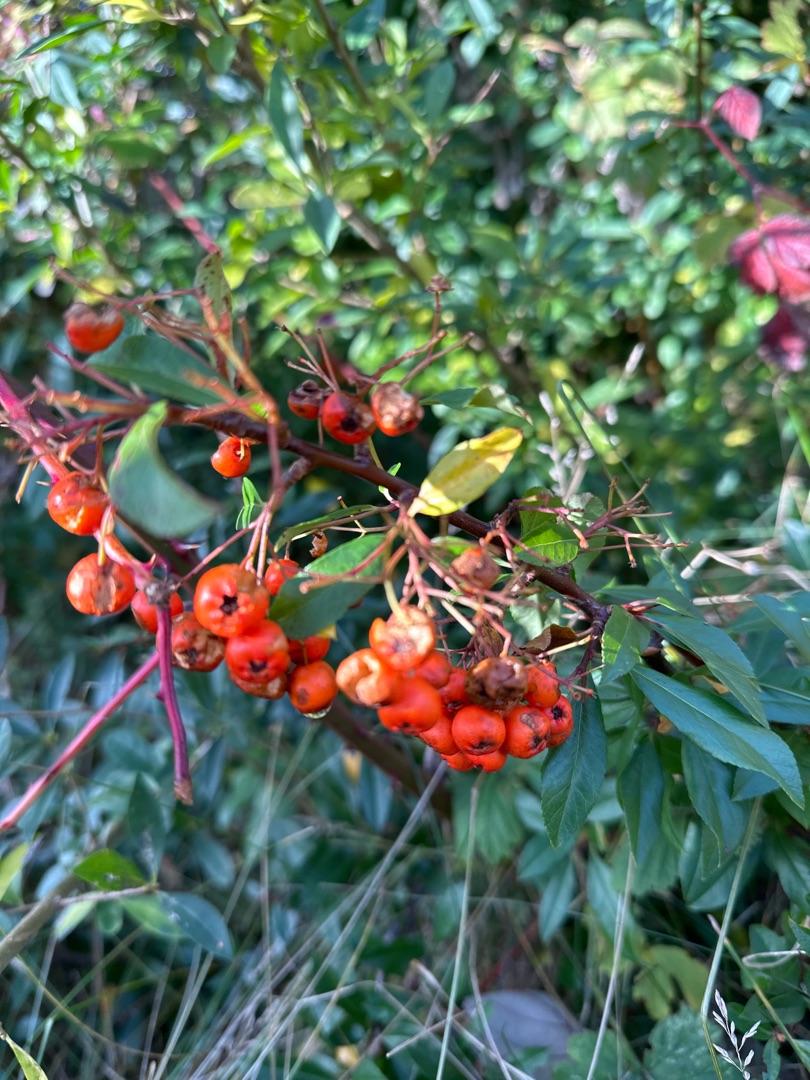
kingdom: Plantae
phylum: Tracheophyta
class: Magnoliopsida
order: Rosales
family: Rosaceae
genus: Pyracantha
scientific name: Pyracantha coccinea
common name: Ildtorn
